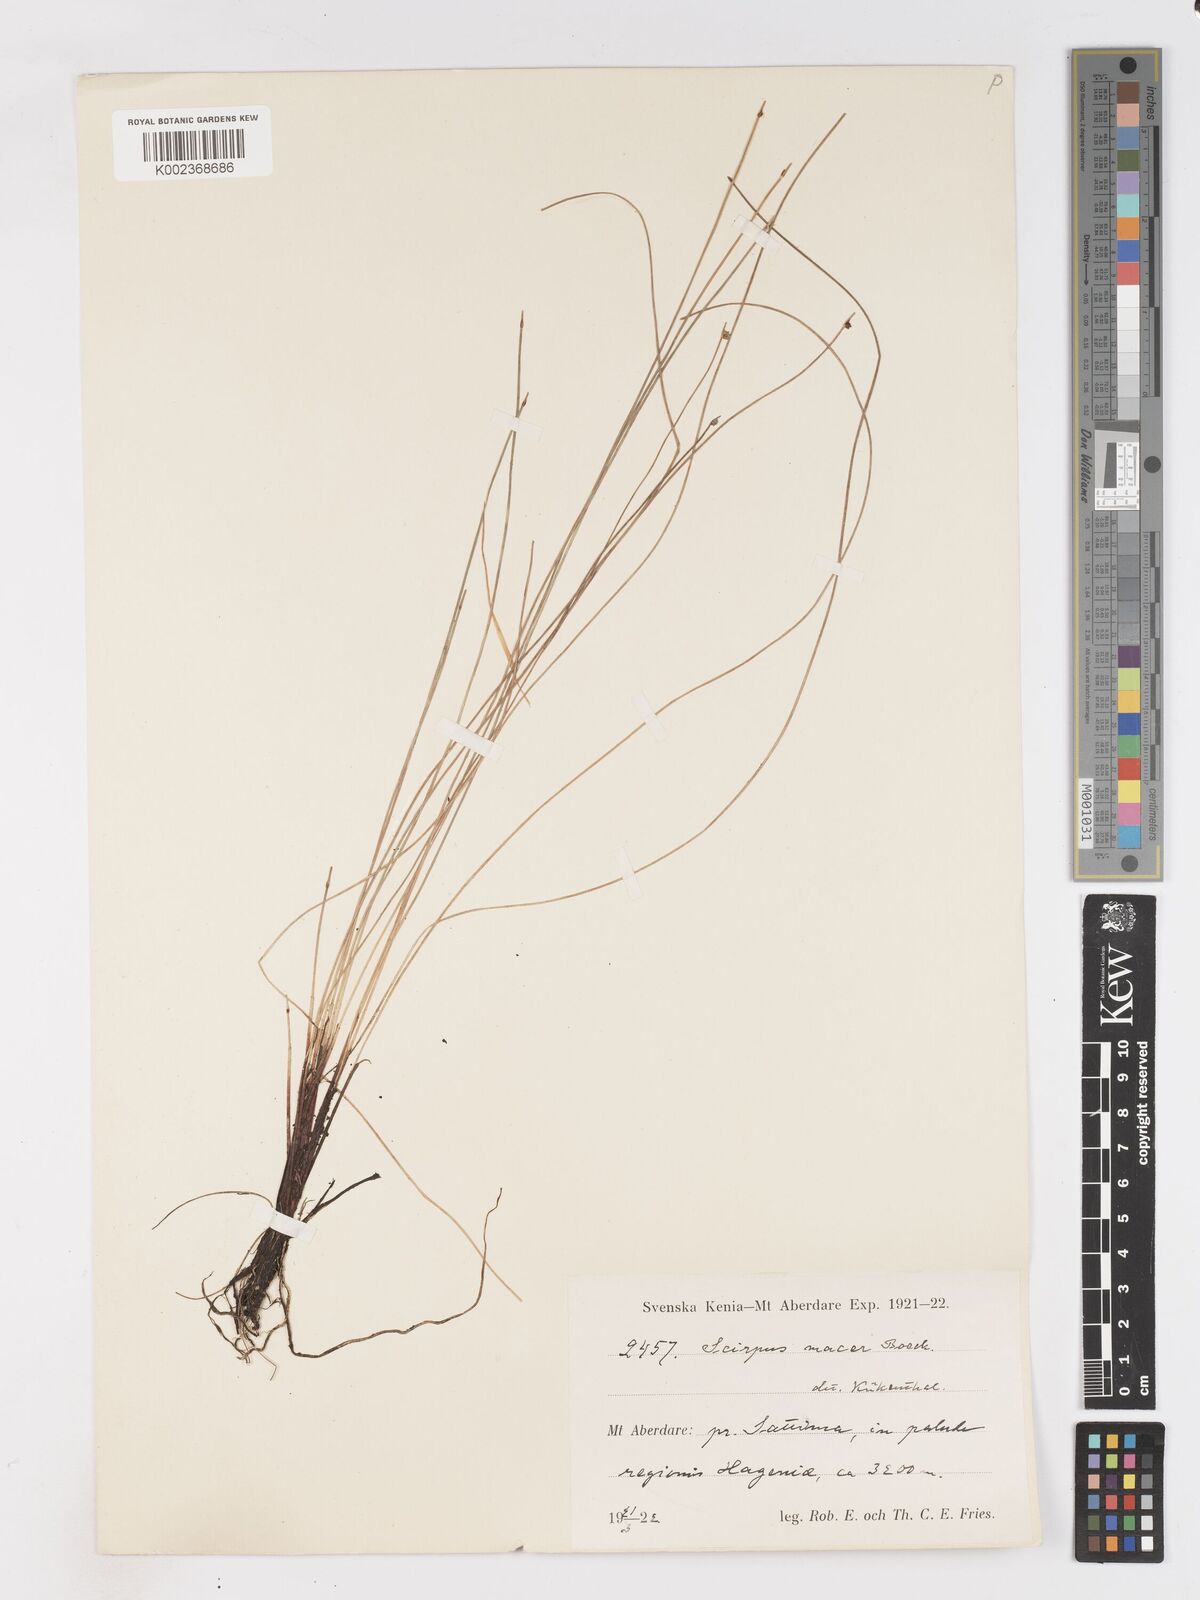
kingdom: Plantae
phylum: Tracheophyta
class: Liliopsida
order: Poales
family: Cyperaceae
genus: Isolepis
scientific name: Isolepis costata
